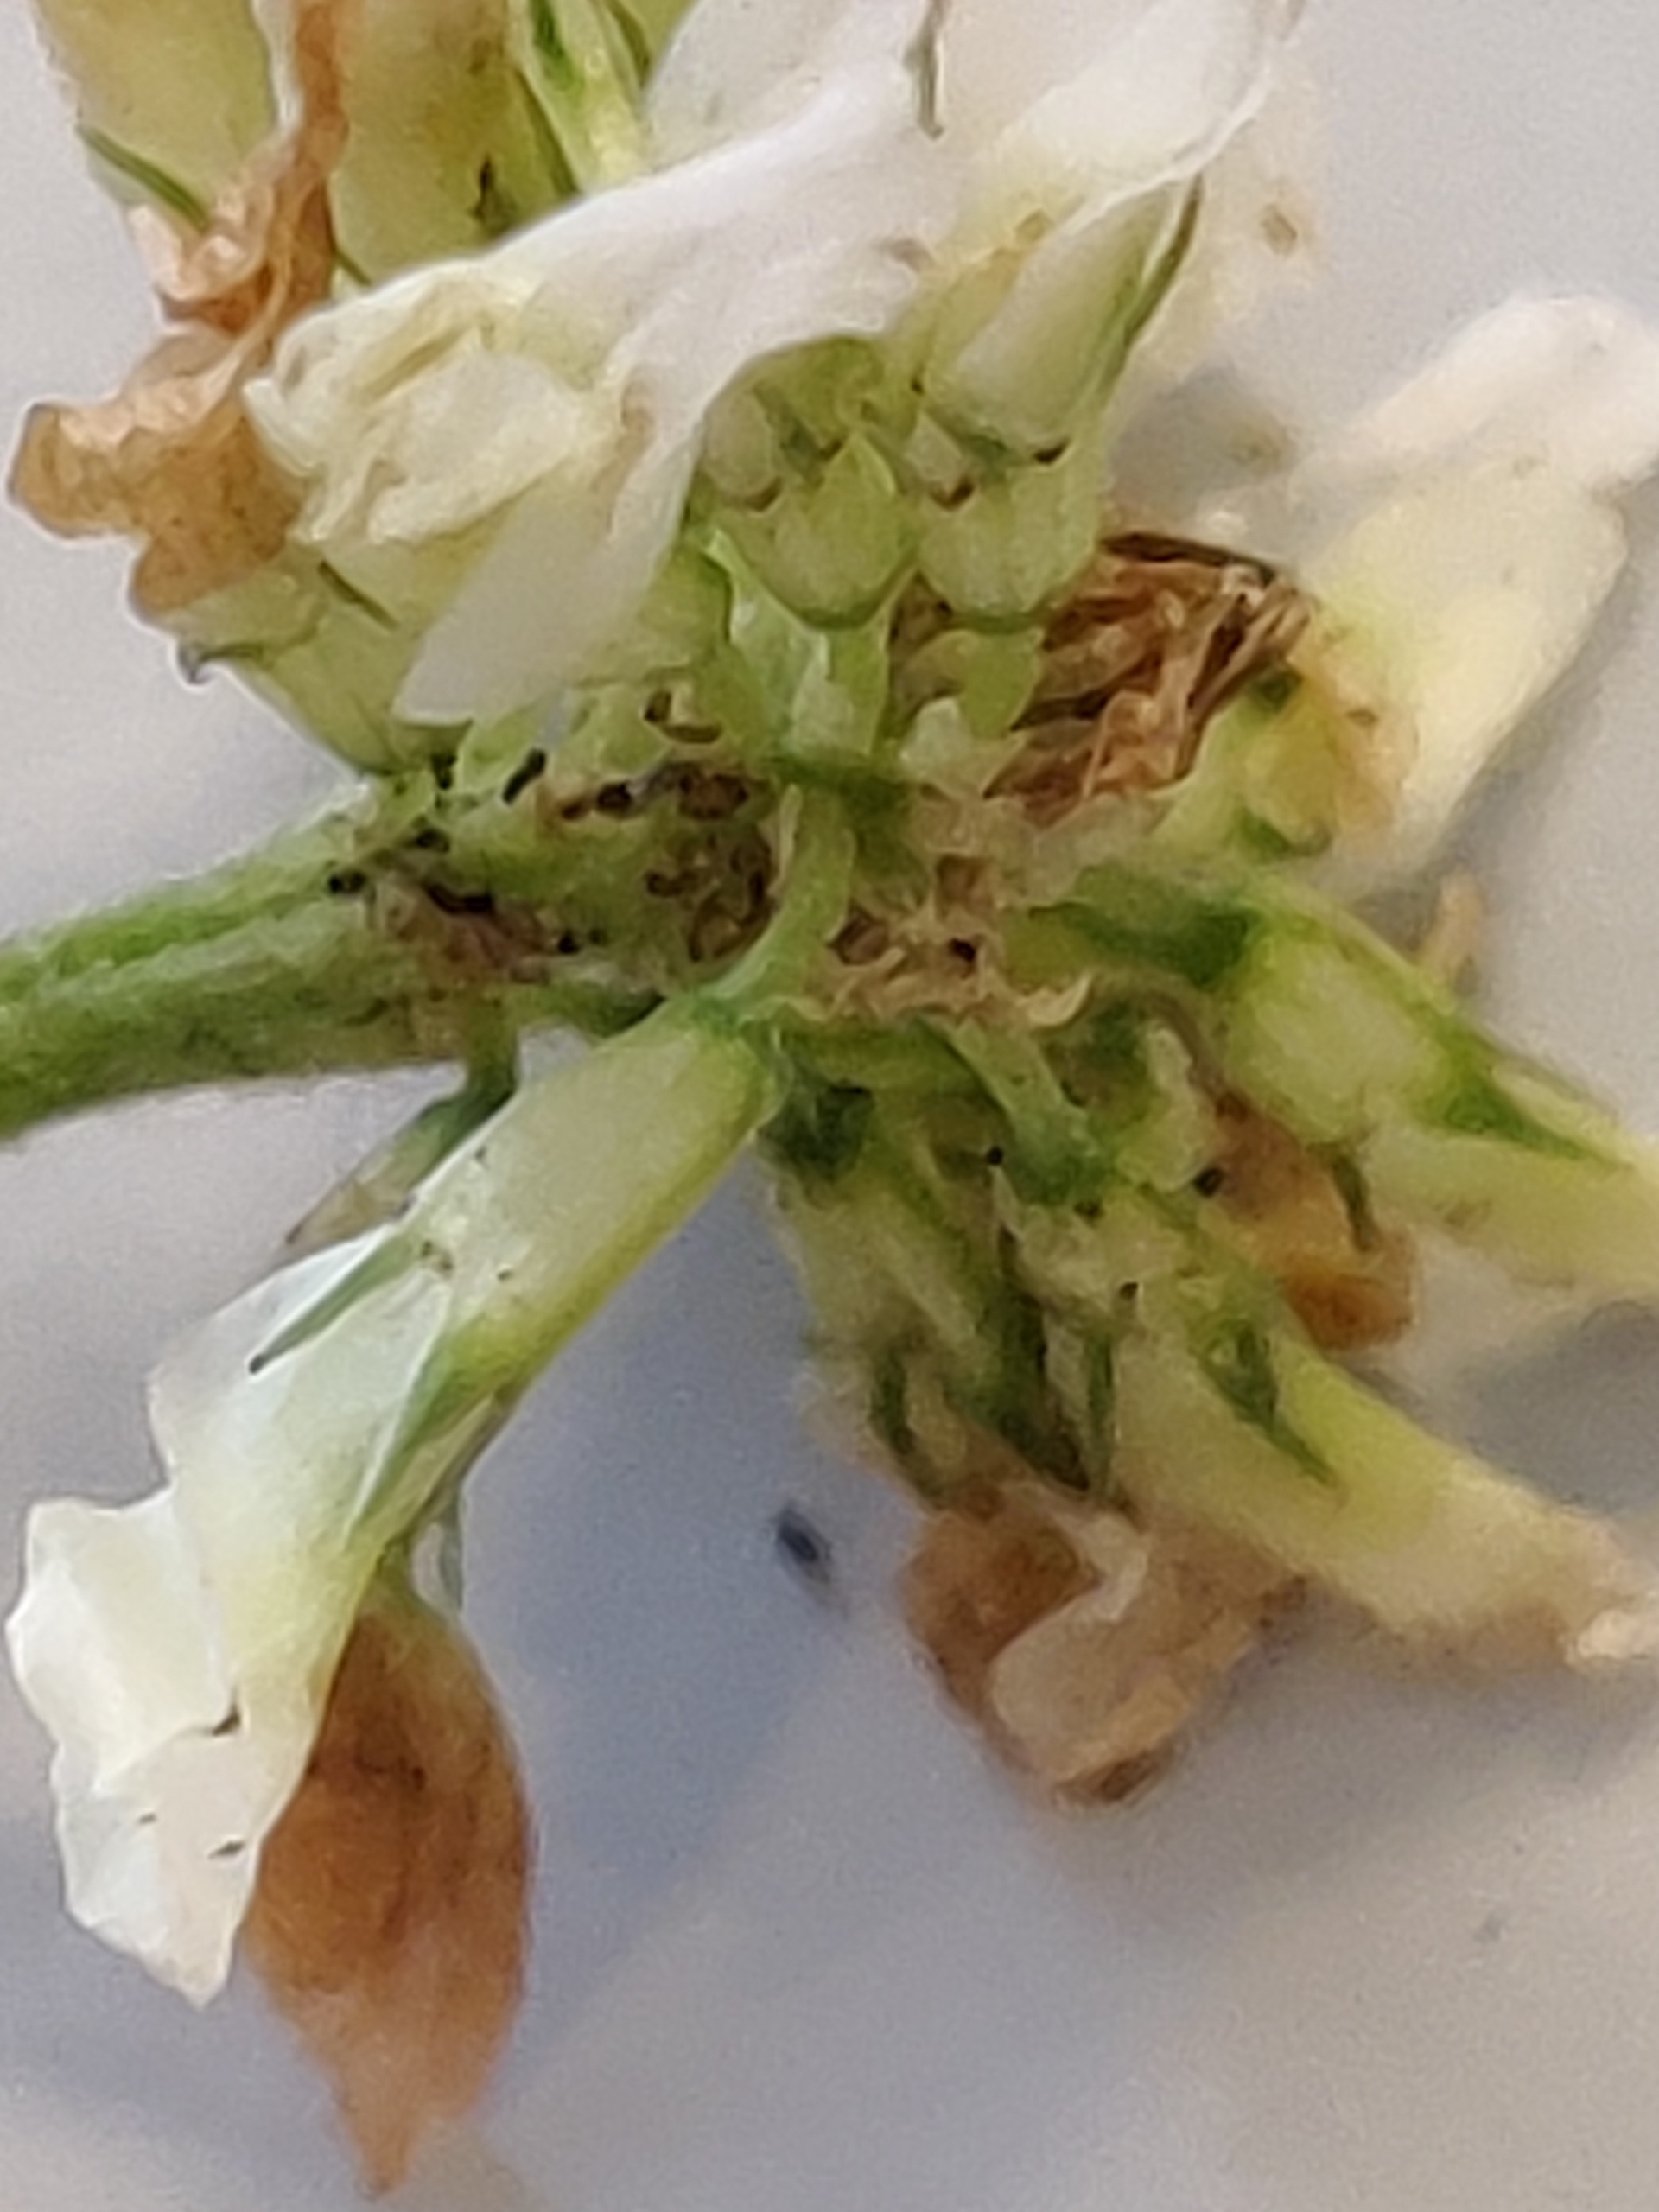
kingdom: Plantae
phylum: Tracheophyta
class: Magnoliopsida
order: Fabales
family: Fabaceae
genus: Trifolium
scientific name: Trifolium repens
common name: Hvid-kløver
